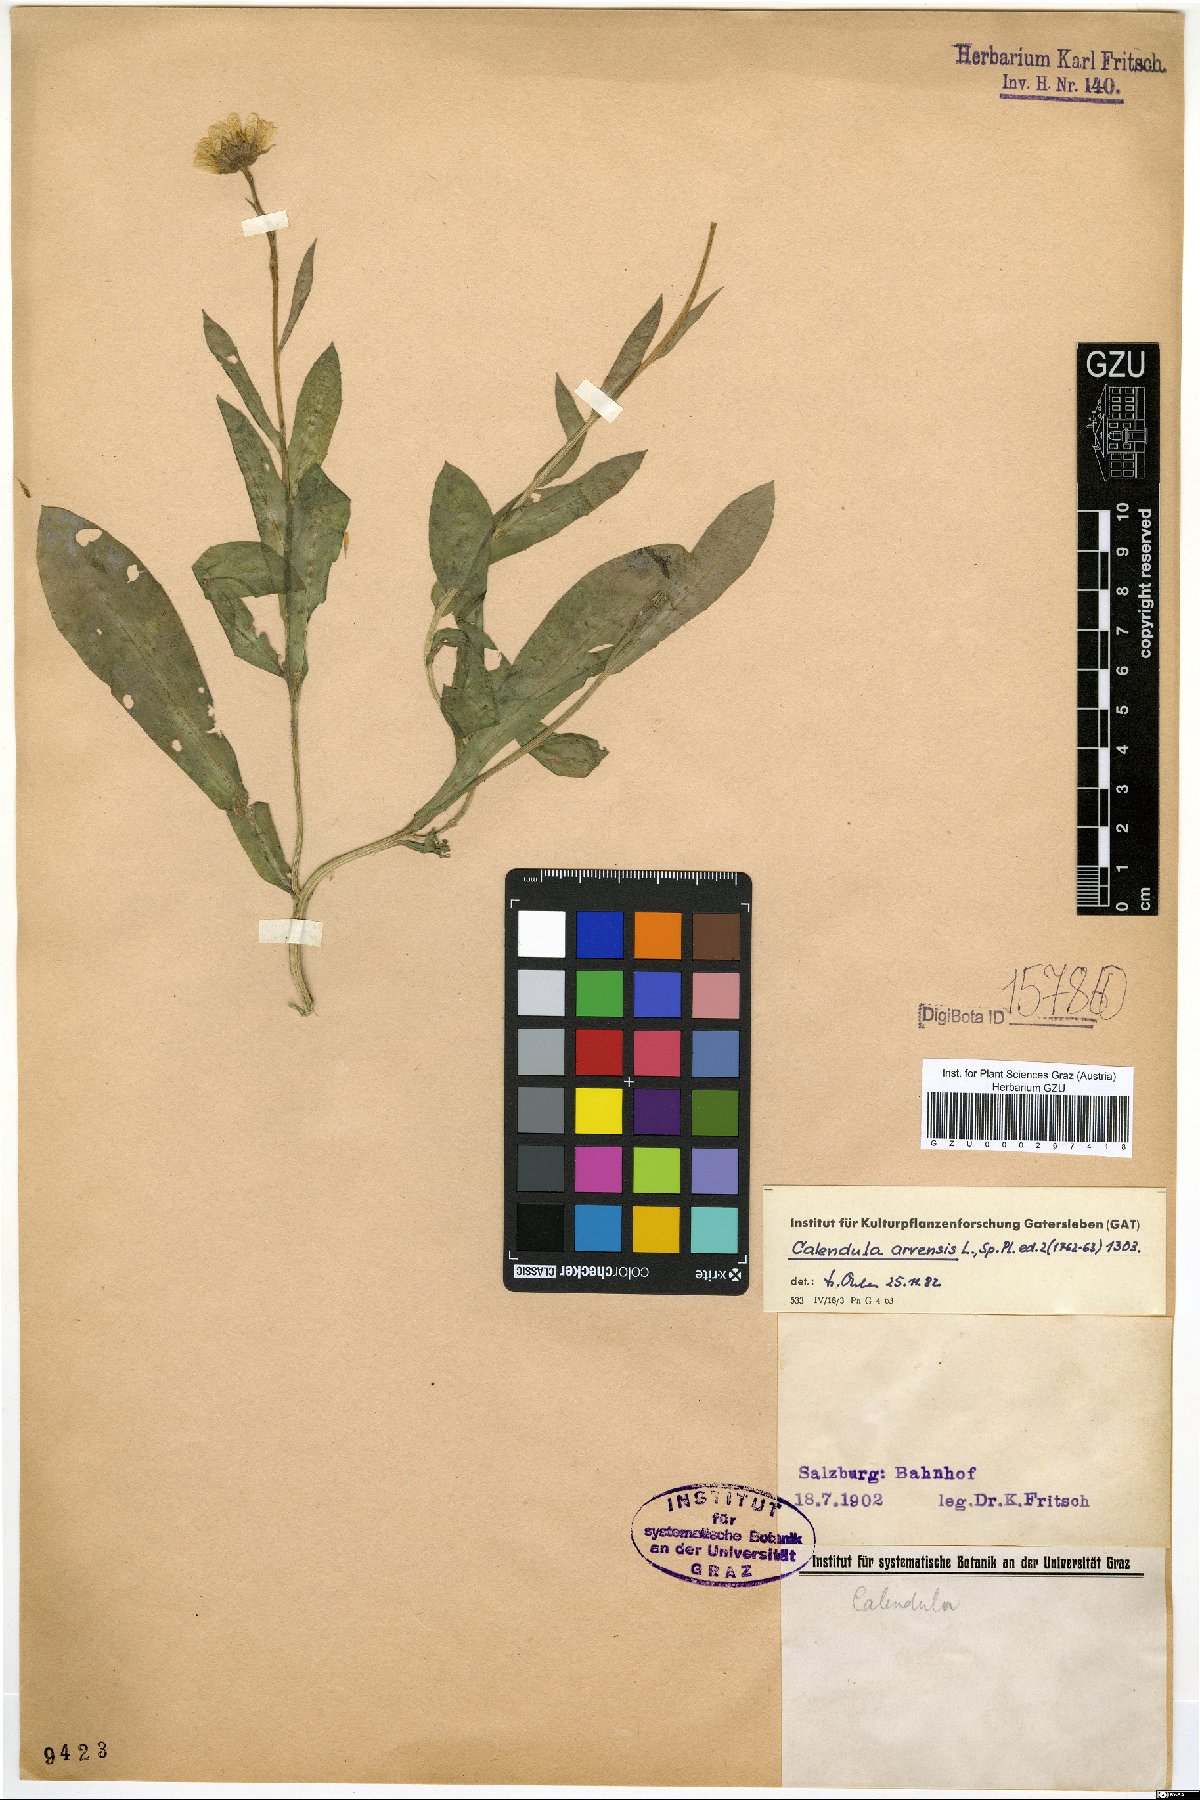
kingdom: Plantae
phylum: Tracheophyta
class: Magnoliopsida
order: Asterales
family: Asteraceae
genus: Calendula
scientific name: Calendula arvensis
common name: Field marigold
